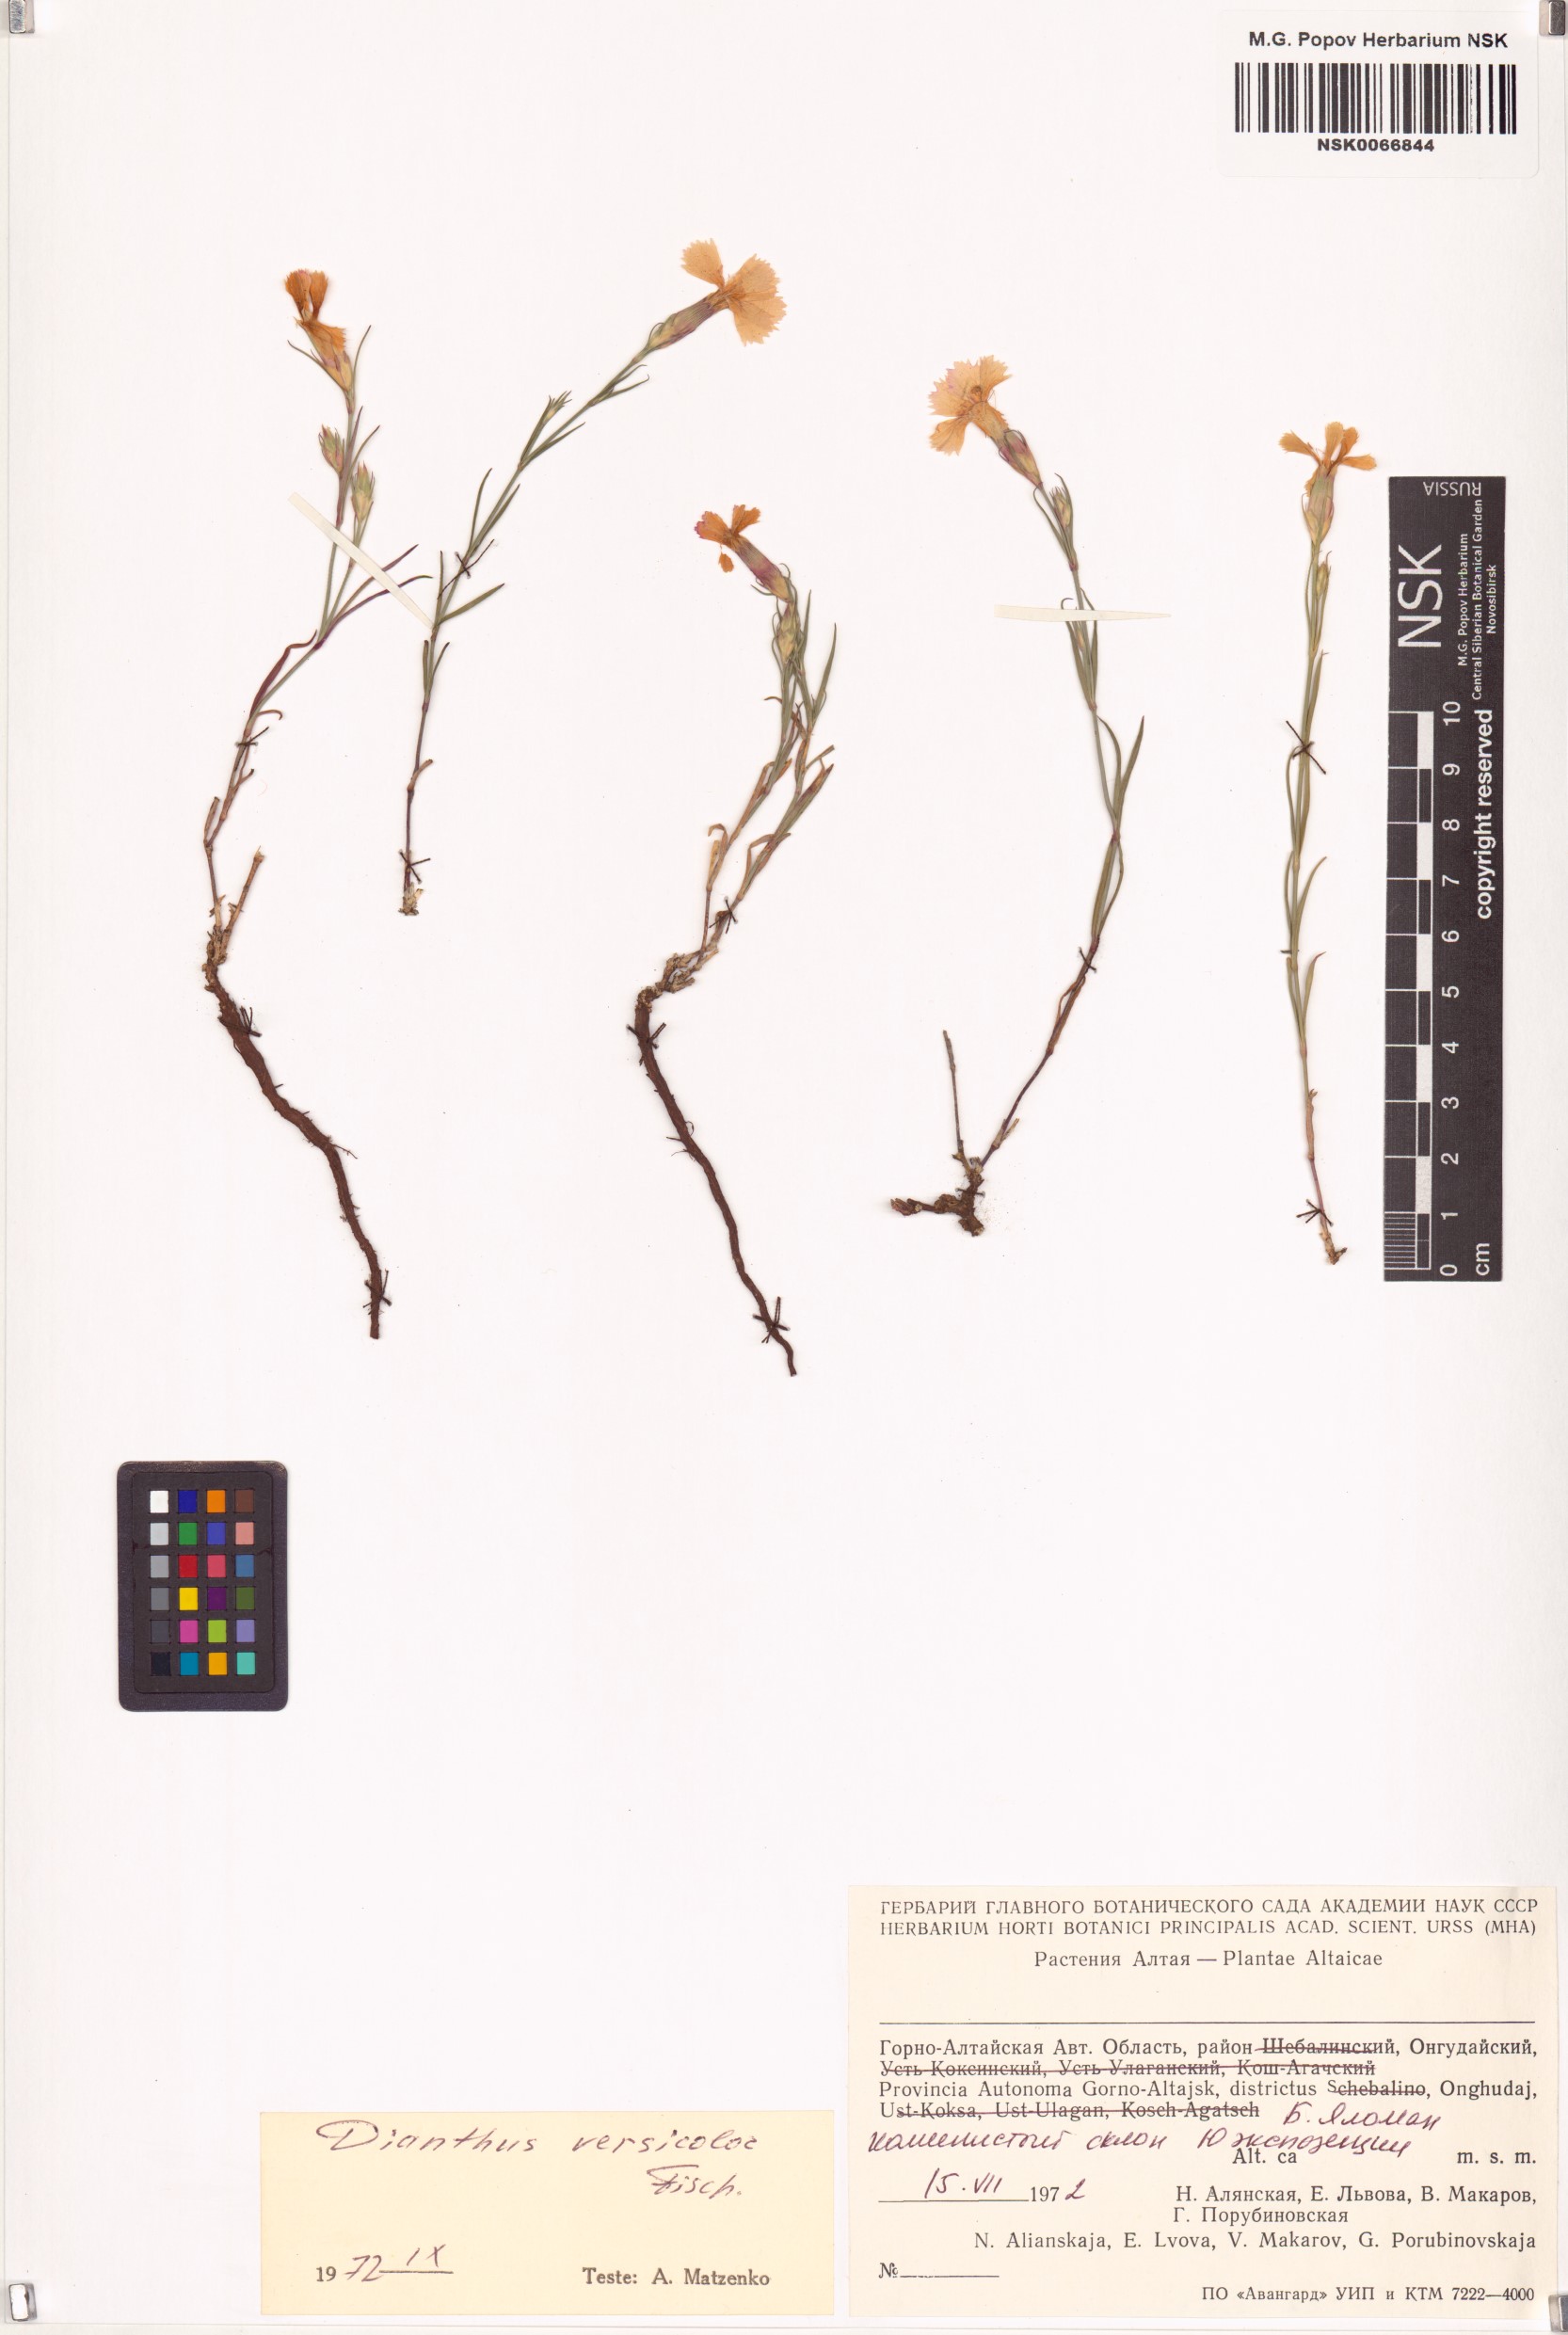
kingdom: Plantae
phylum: Tracheophyta
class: Magnoliopsida
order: Caryophyllales
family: Caryophyllaceae
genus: Dianthus
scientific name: Dianthus chinensis
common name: Rainbow pink
